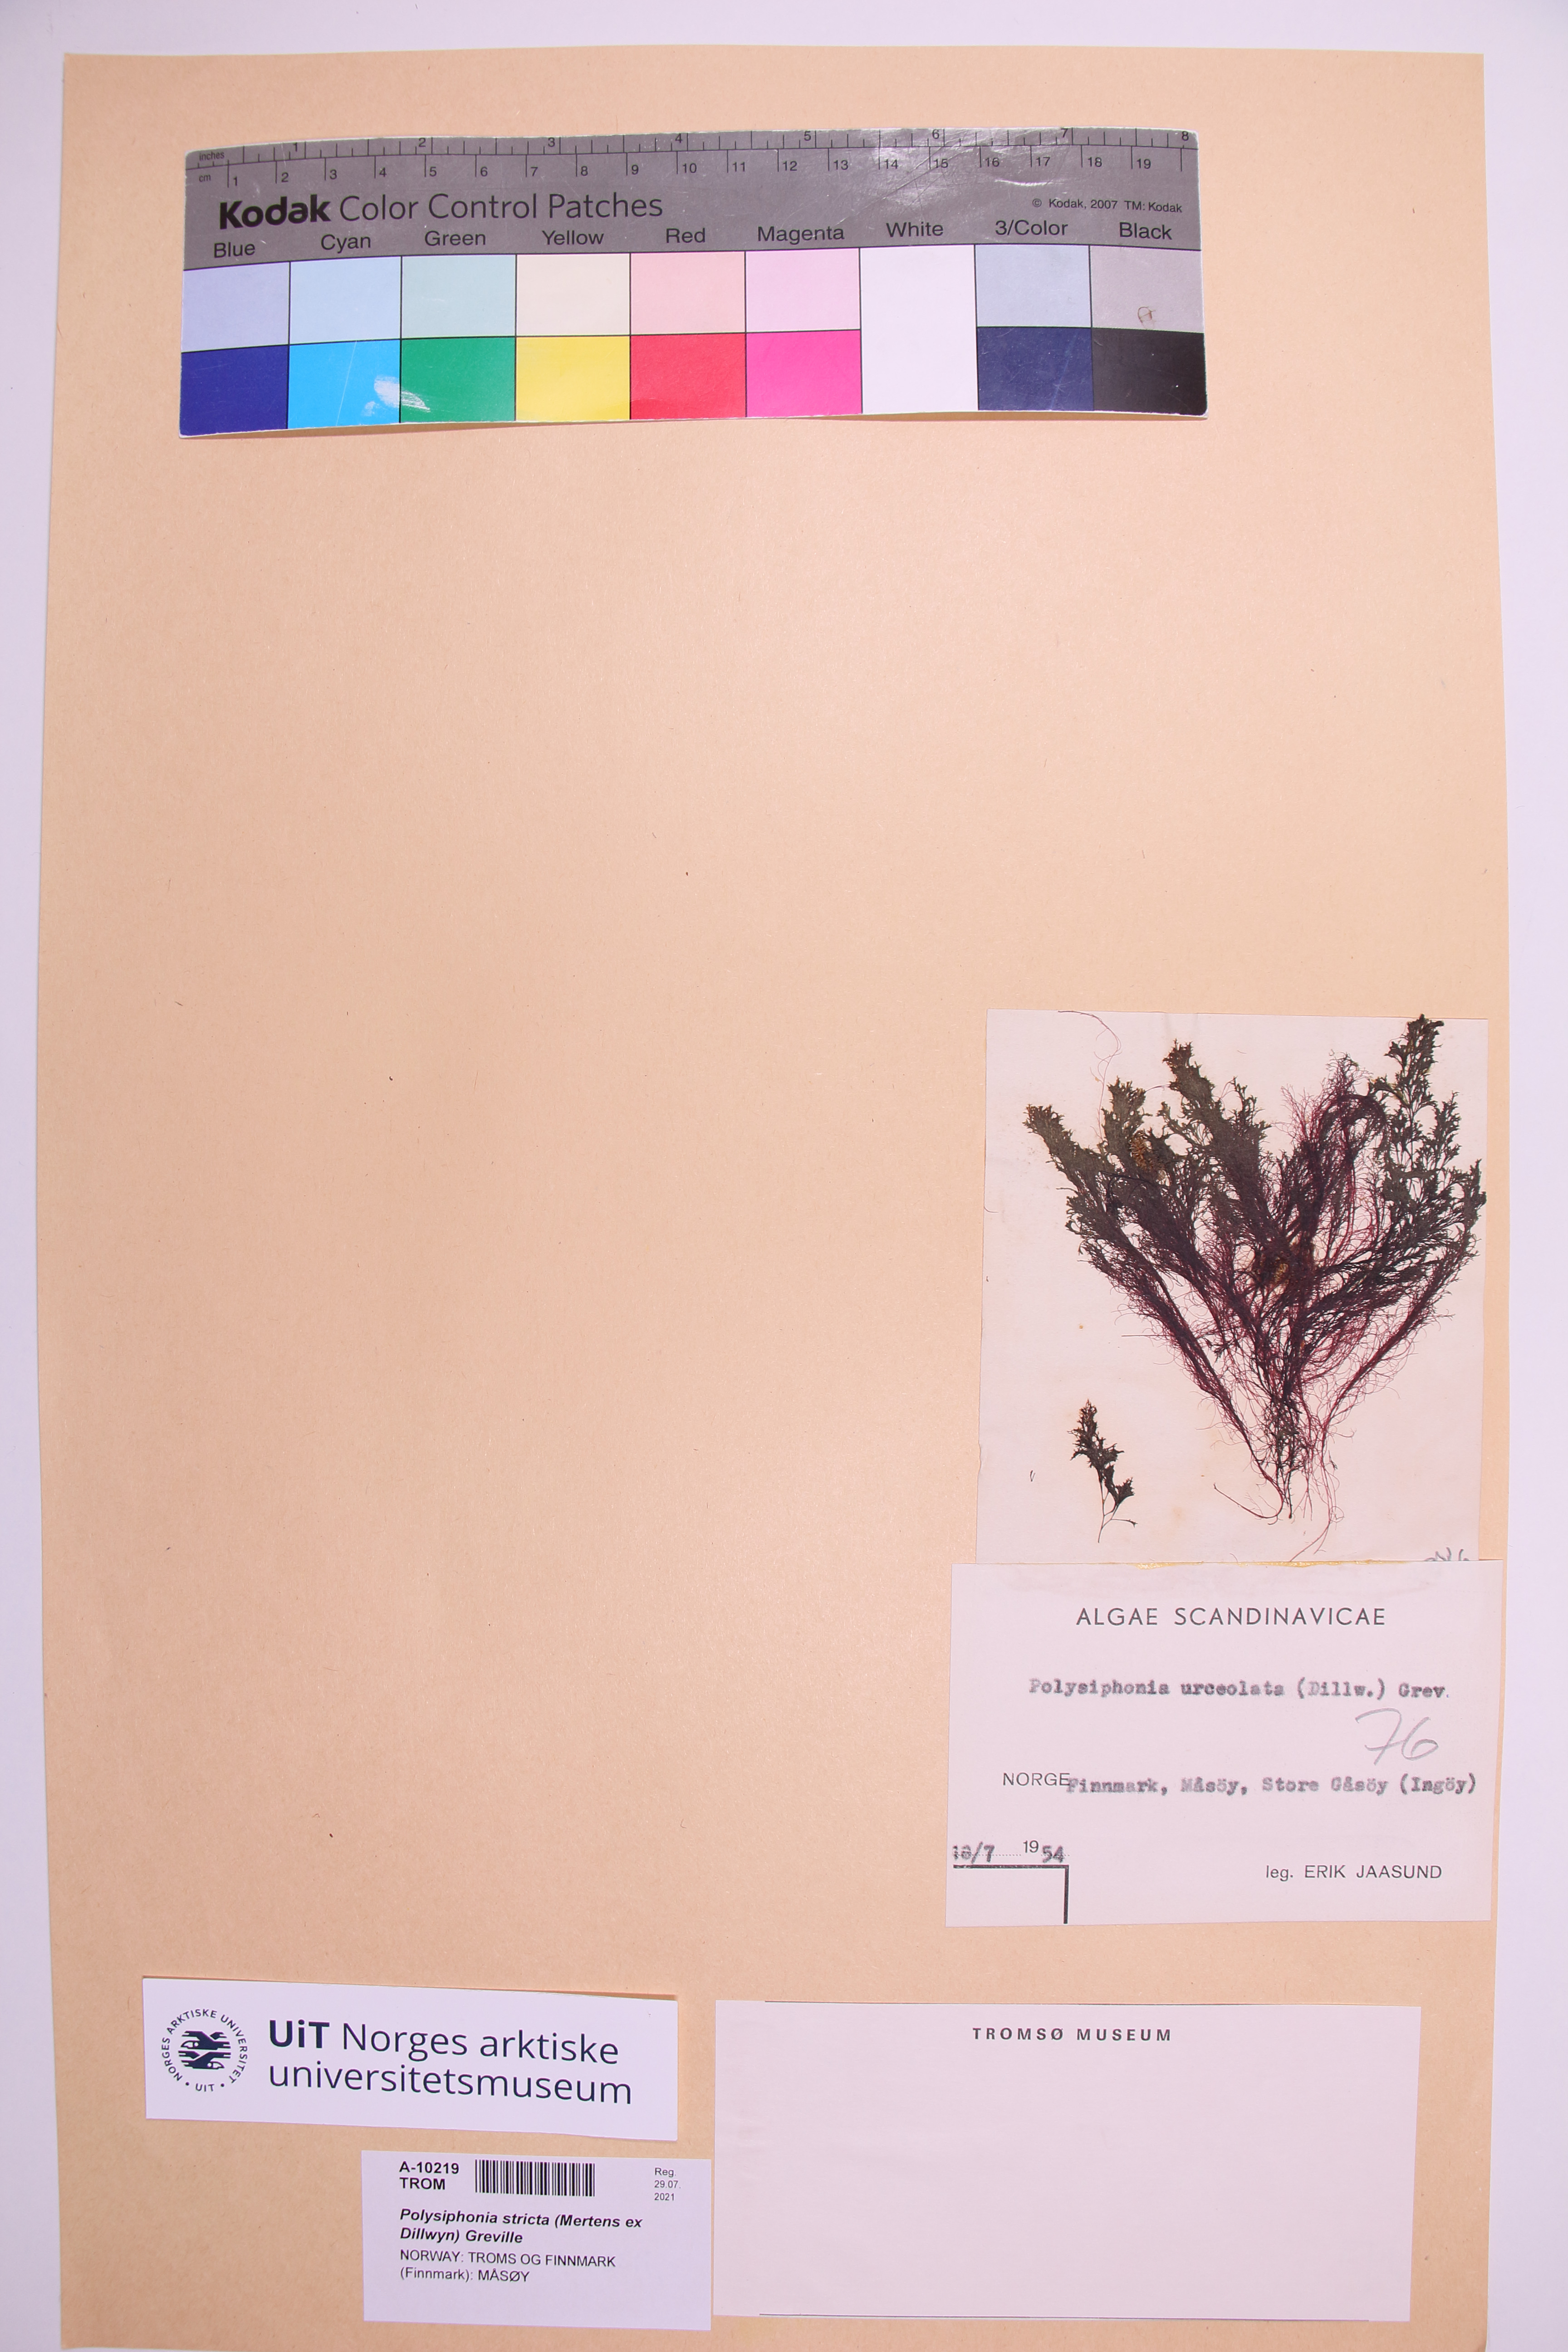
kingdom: Plantae
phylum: Rhodophyta
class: Florideophyceae
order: Ceramiales
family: Rhodomelaceae
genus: Polysiphonia
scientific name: Polysiphonia stricta
